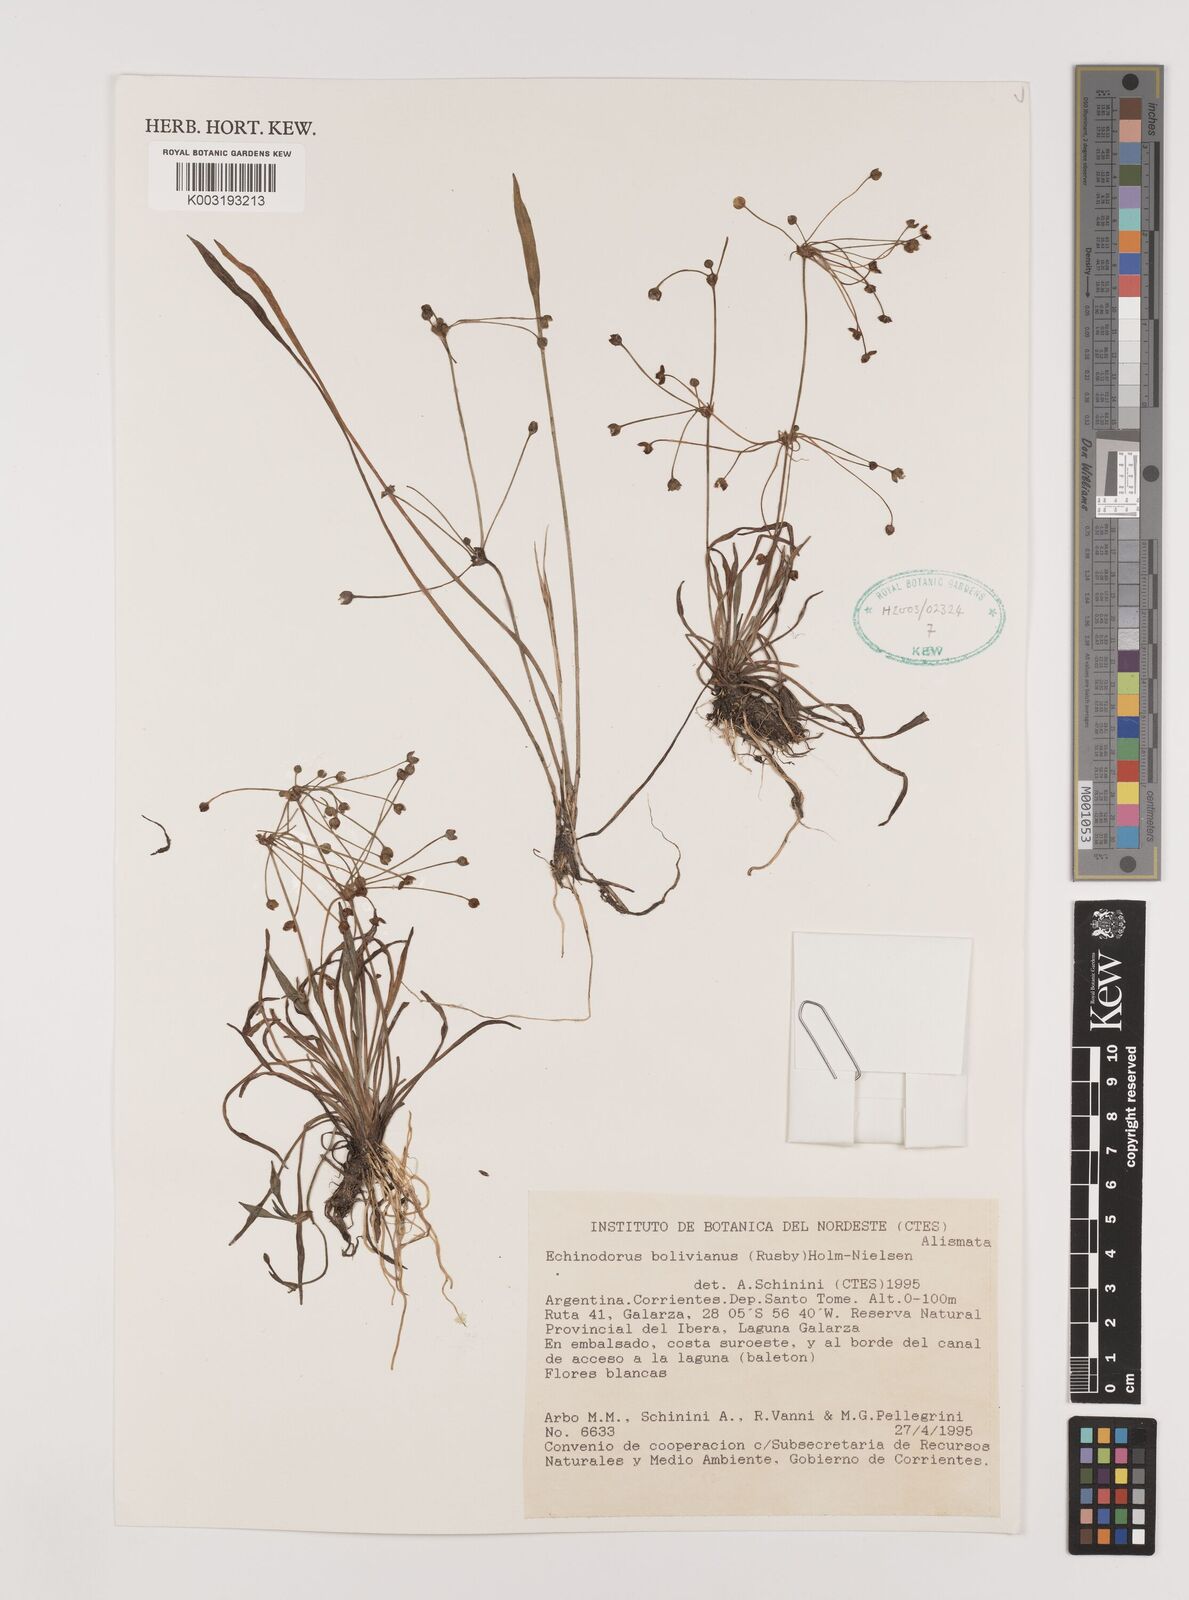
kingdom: Plantae
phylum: Tracheophyta
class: Liliopsida
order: Alismatales
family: Alismataceae
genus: Helanthium
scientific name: Helanthium bolivianum
